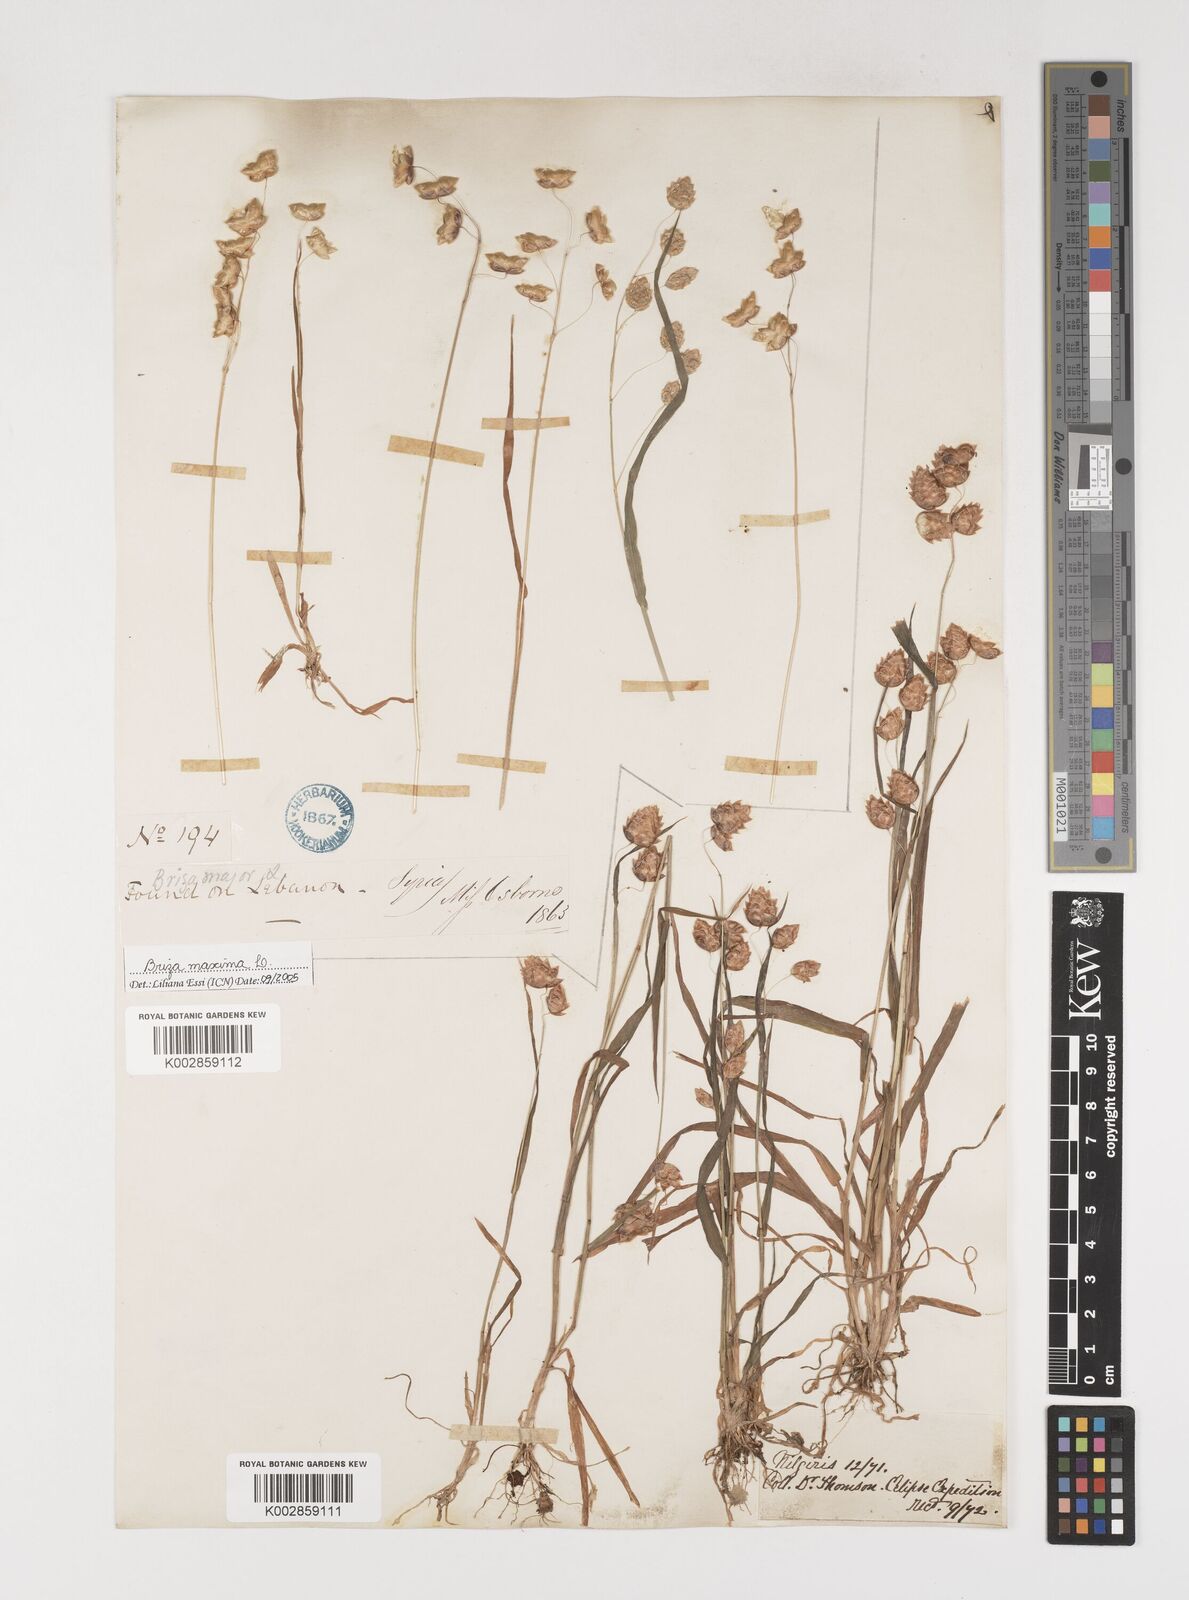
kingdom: Plantae
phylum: Tracheophyta
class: Liliopsida
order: Poales
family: Poaceae
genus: Briza
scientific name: Briza maxima
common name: Big quakinggrass
